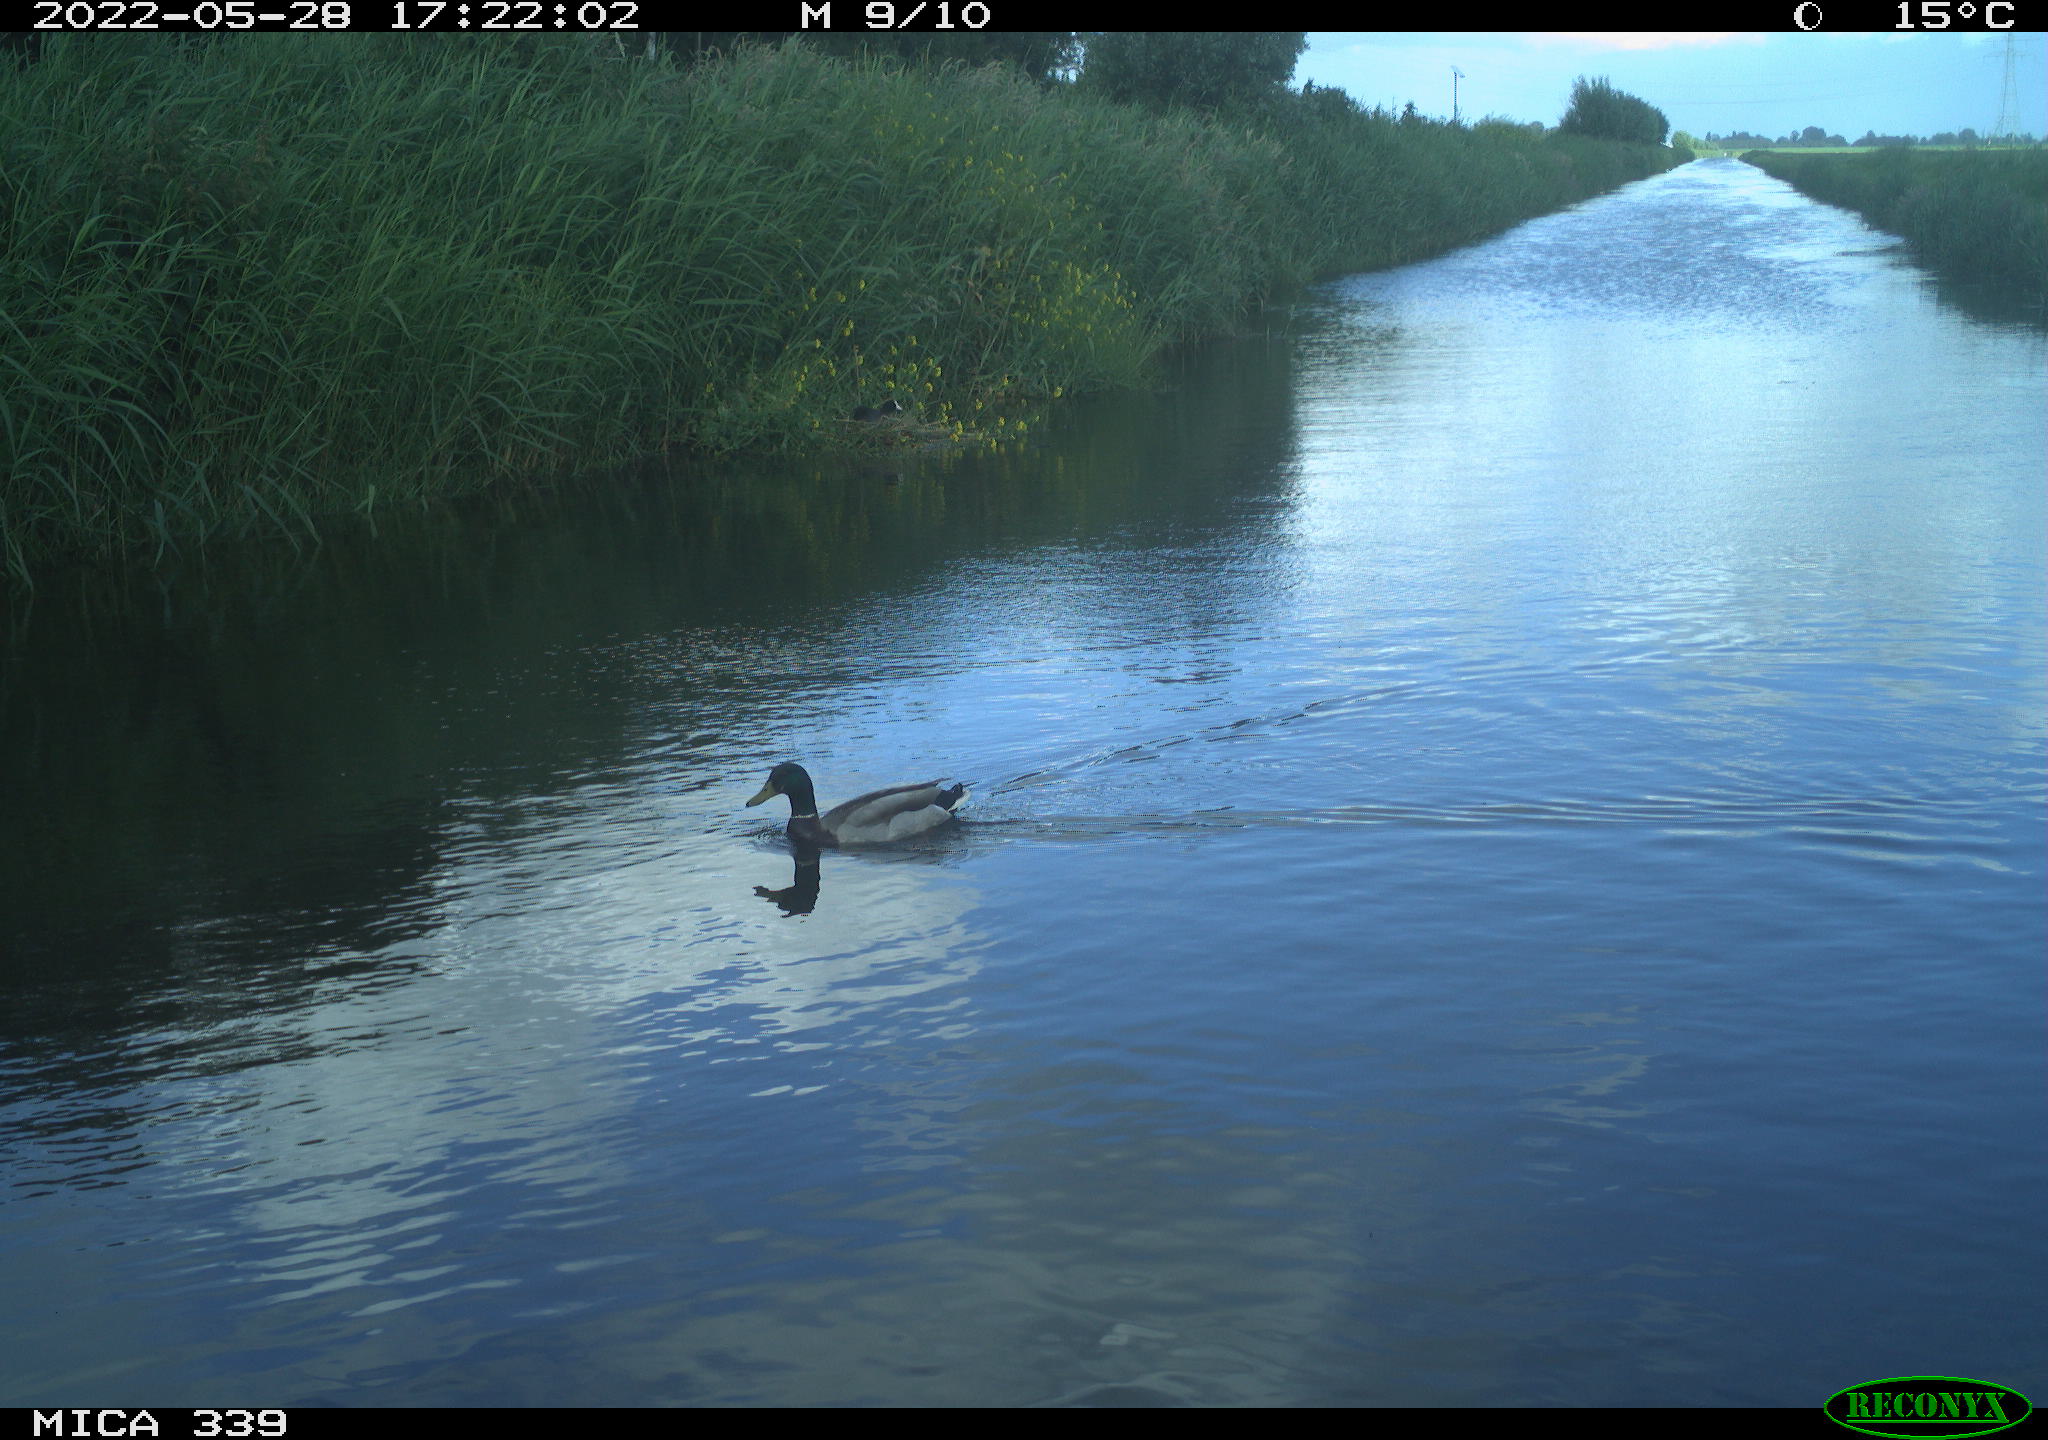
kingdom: Animalia
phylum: Chordata
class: Aves
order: Anseriformes
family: Anatidae
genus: Anas
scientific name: Anas platyrhynchos
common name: Mallard
